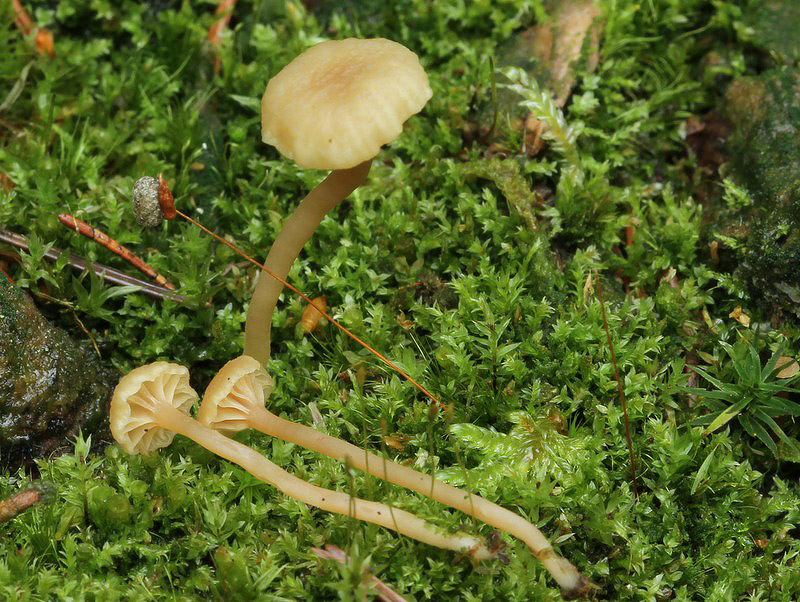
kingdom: Fungi
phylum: Basidiomycota
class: Agaricomycetes
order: Agaricales
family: Hygrophoraceae
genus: Lichenomphalia
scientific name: Lichenomphalia umbellifera
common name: tørve-lavhat
